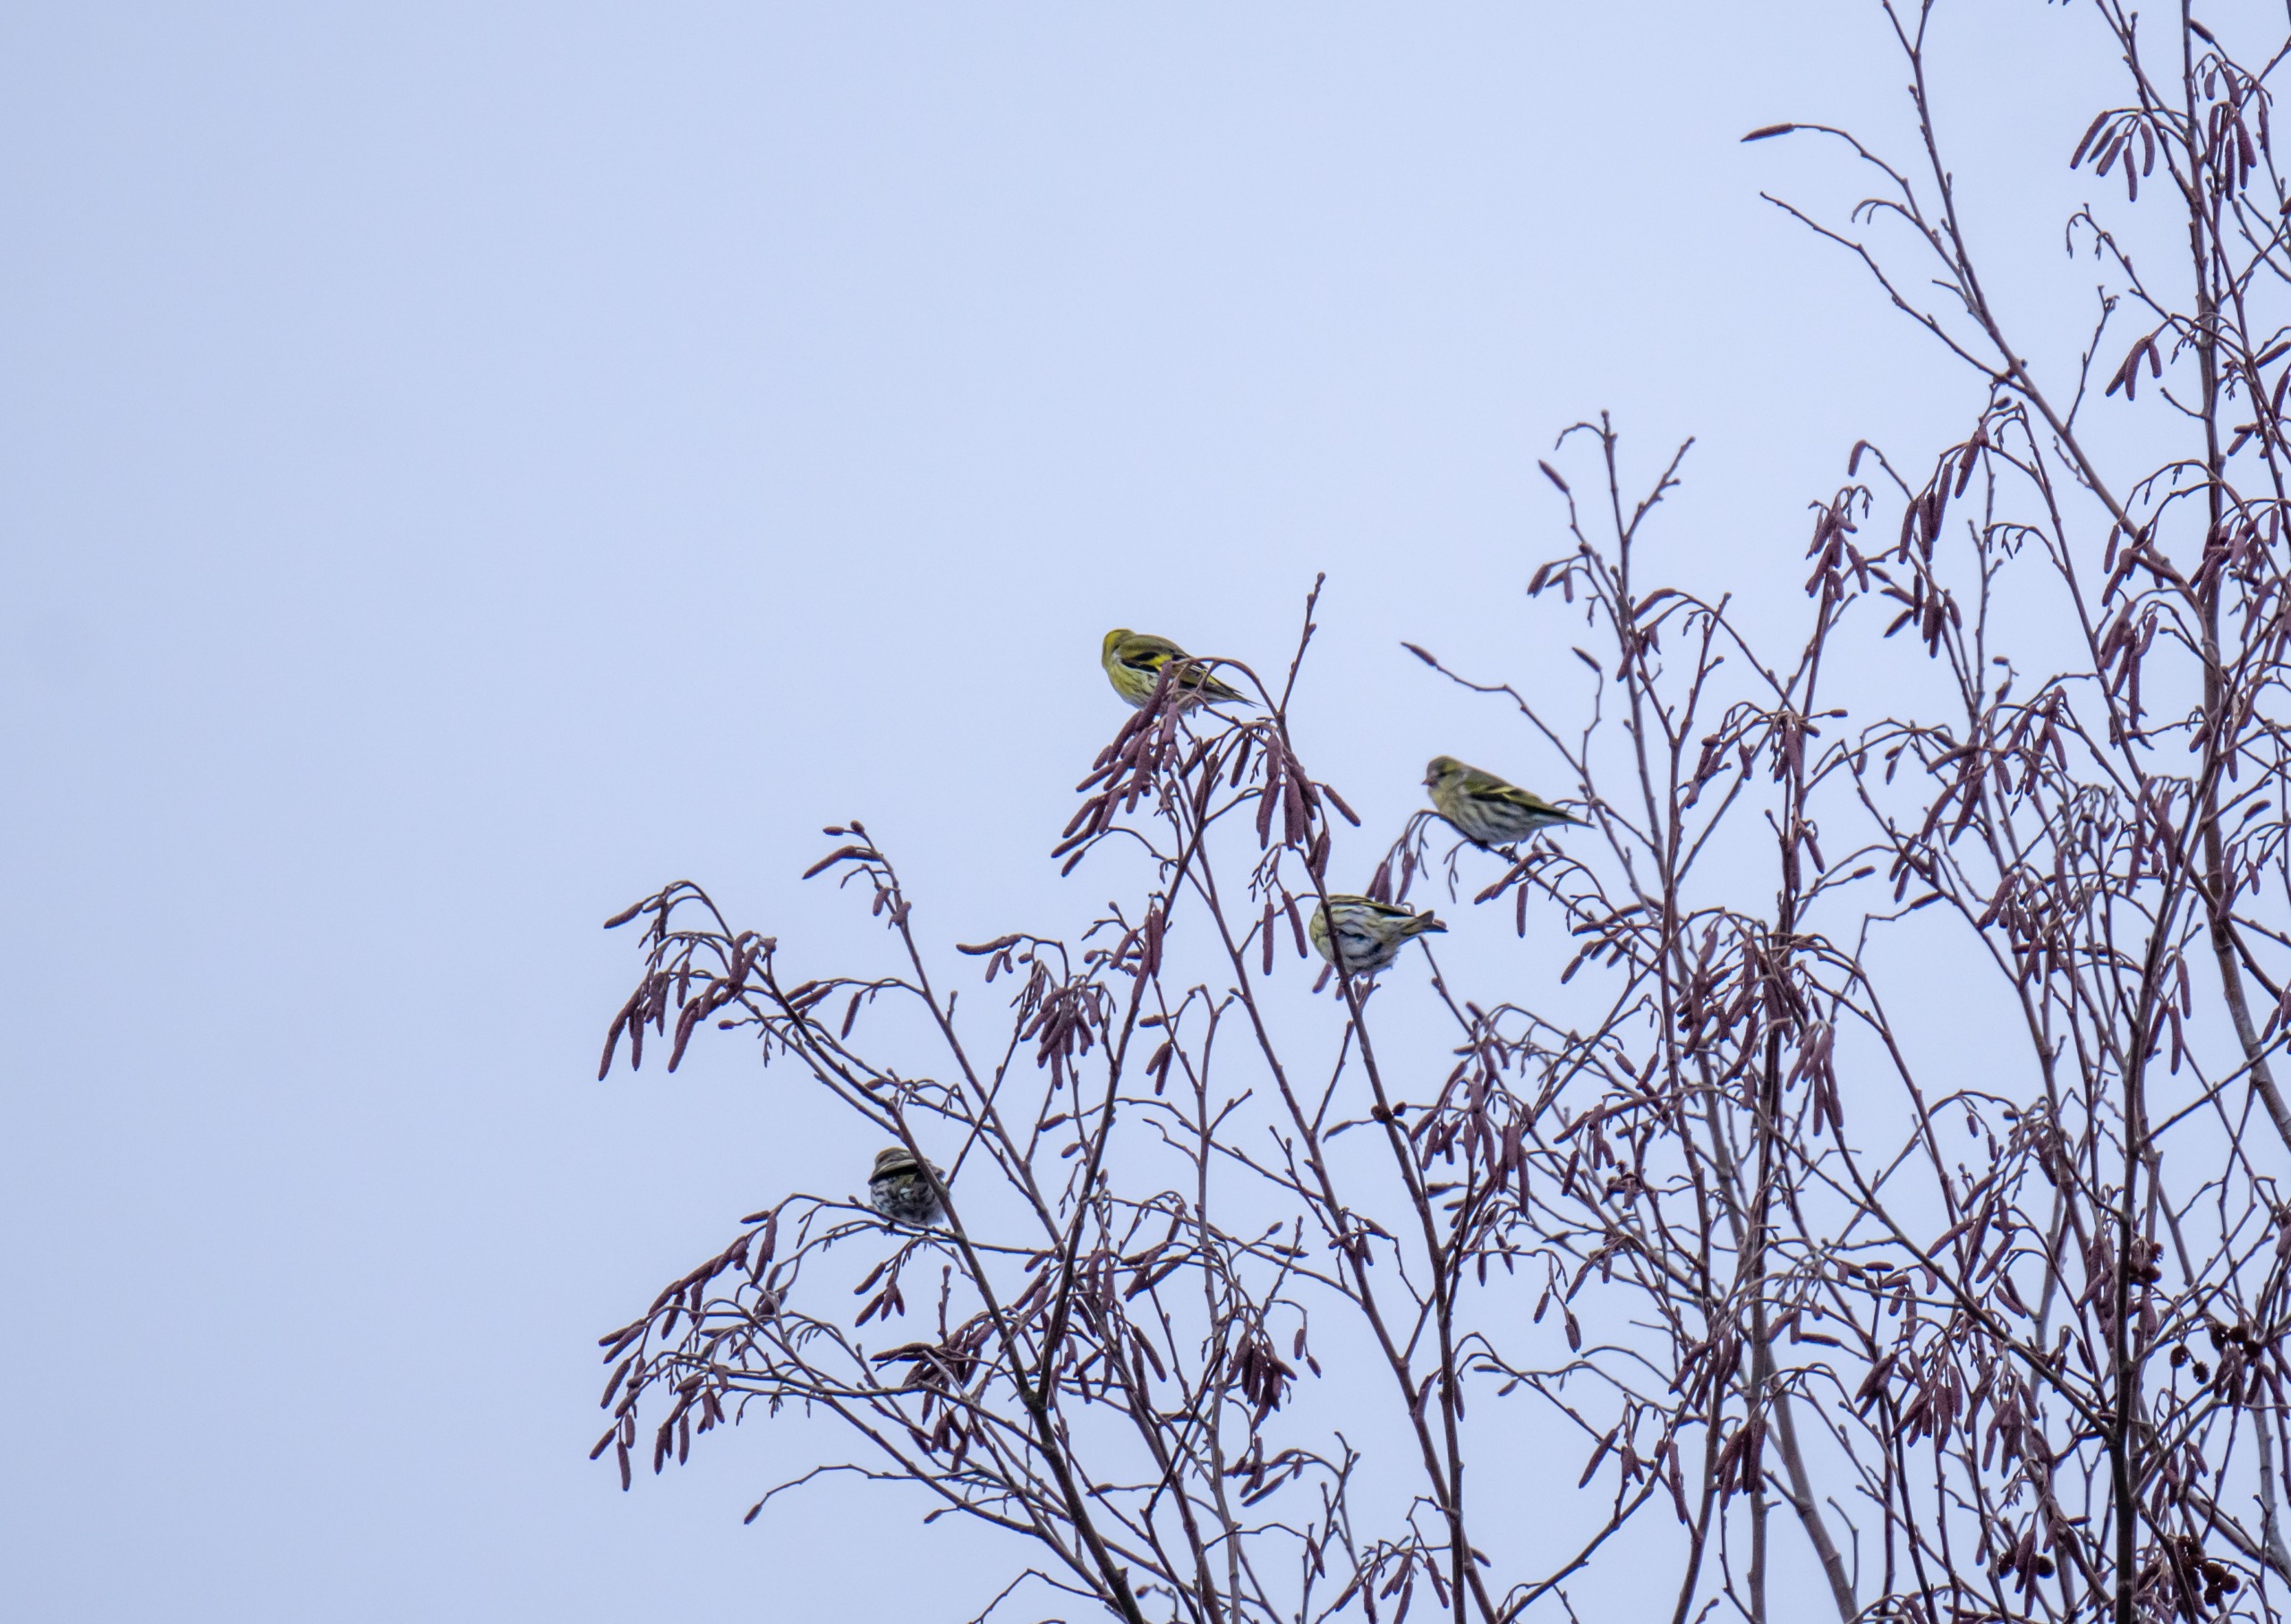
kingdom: Animalia
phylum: Chordata
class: Aves
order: Passeriformes
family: Fringillidae
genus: Spinus
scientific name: Spinus spinus
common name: Grønsisken
